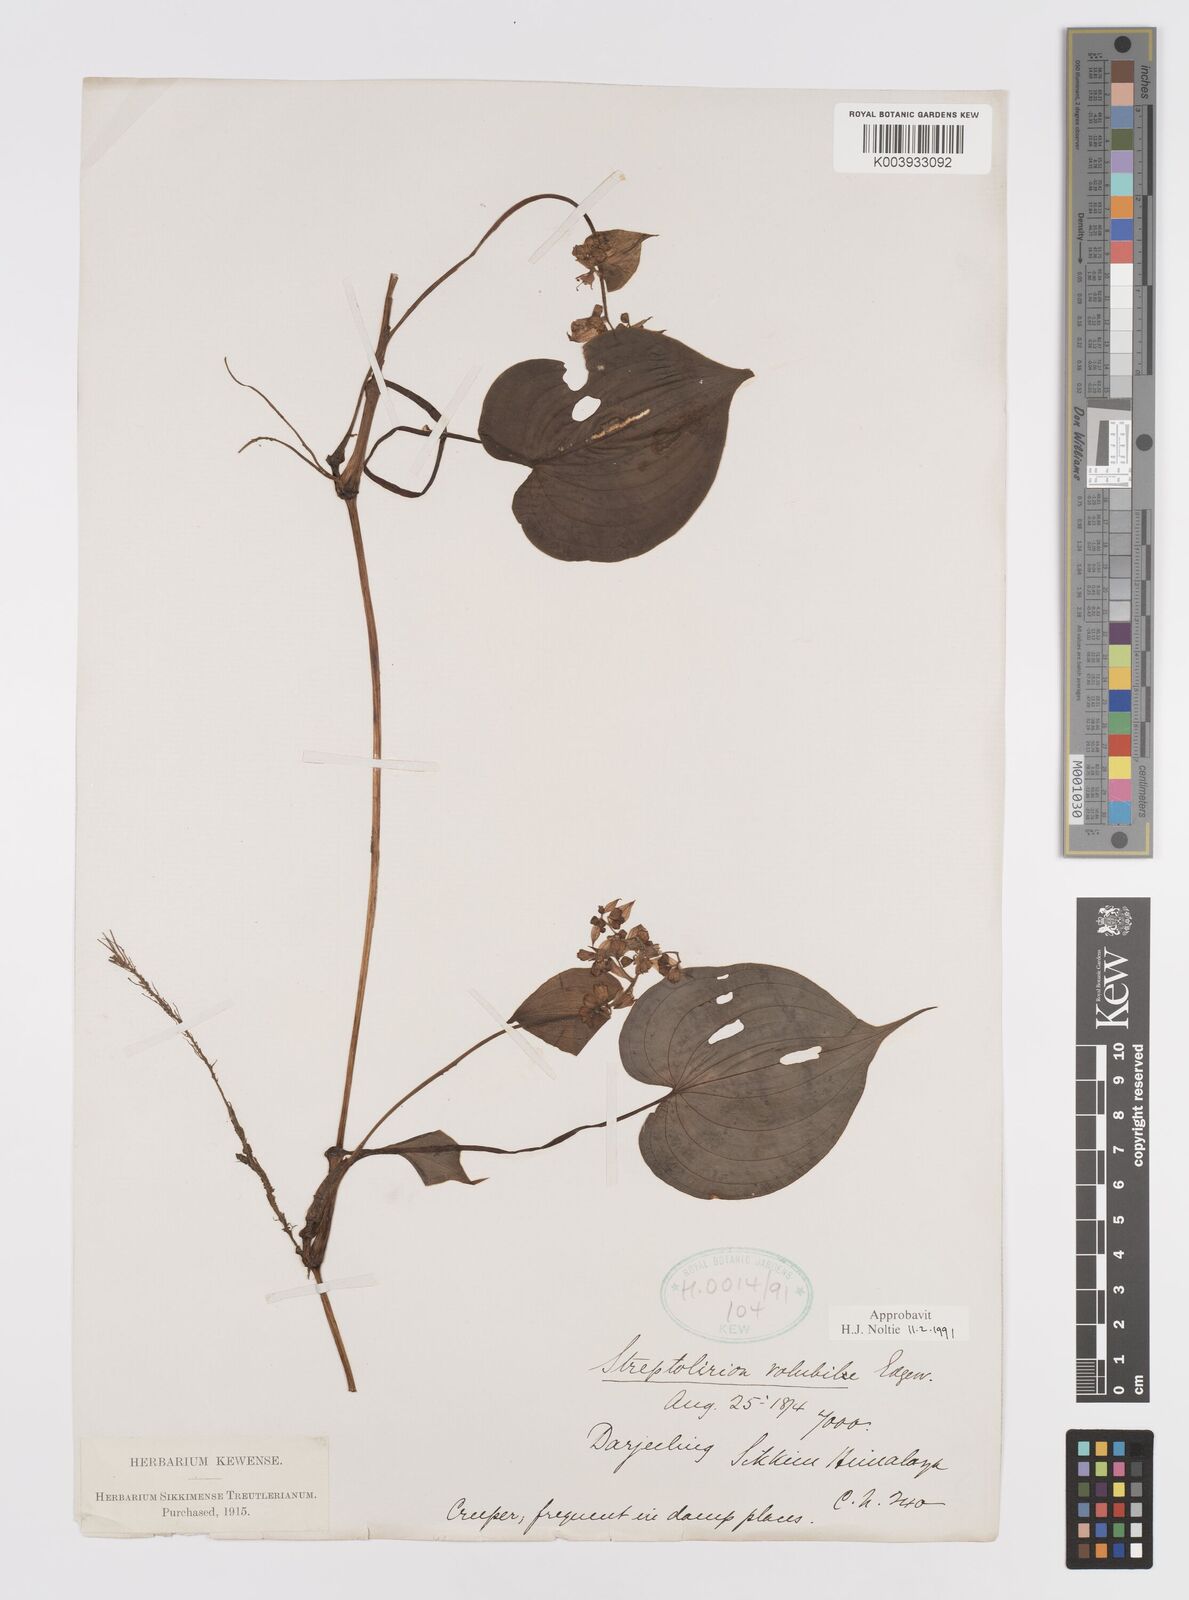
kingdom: Plantae
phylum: Tracheophyta
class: Liliopsida
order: Commelinales
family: Commelinaceae
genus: Streptolirion
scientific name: Streptolirion volubile
